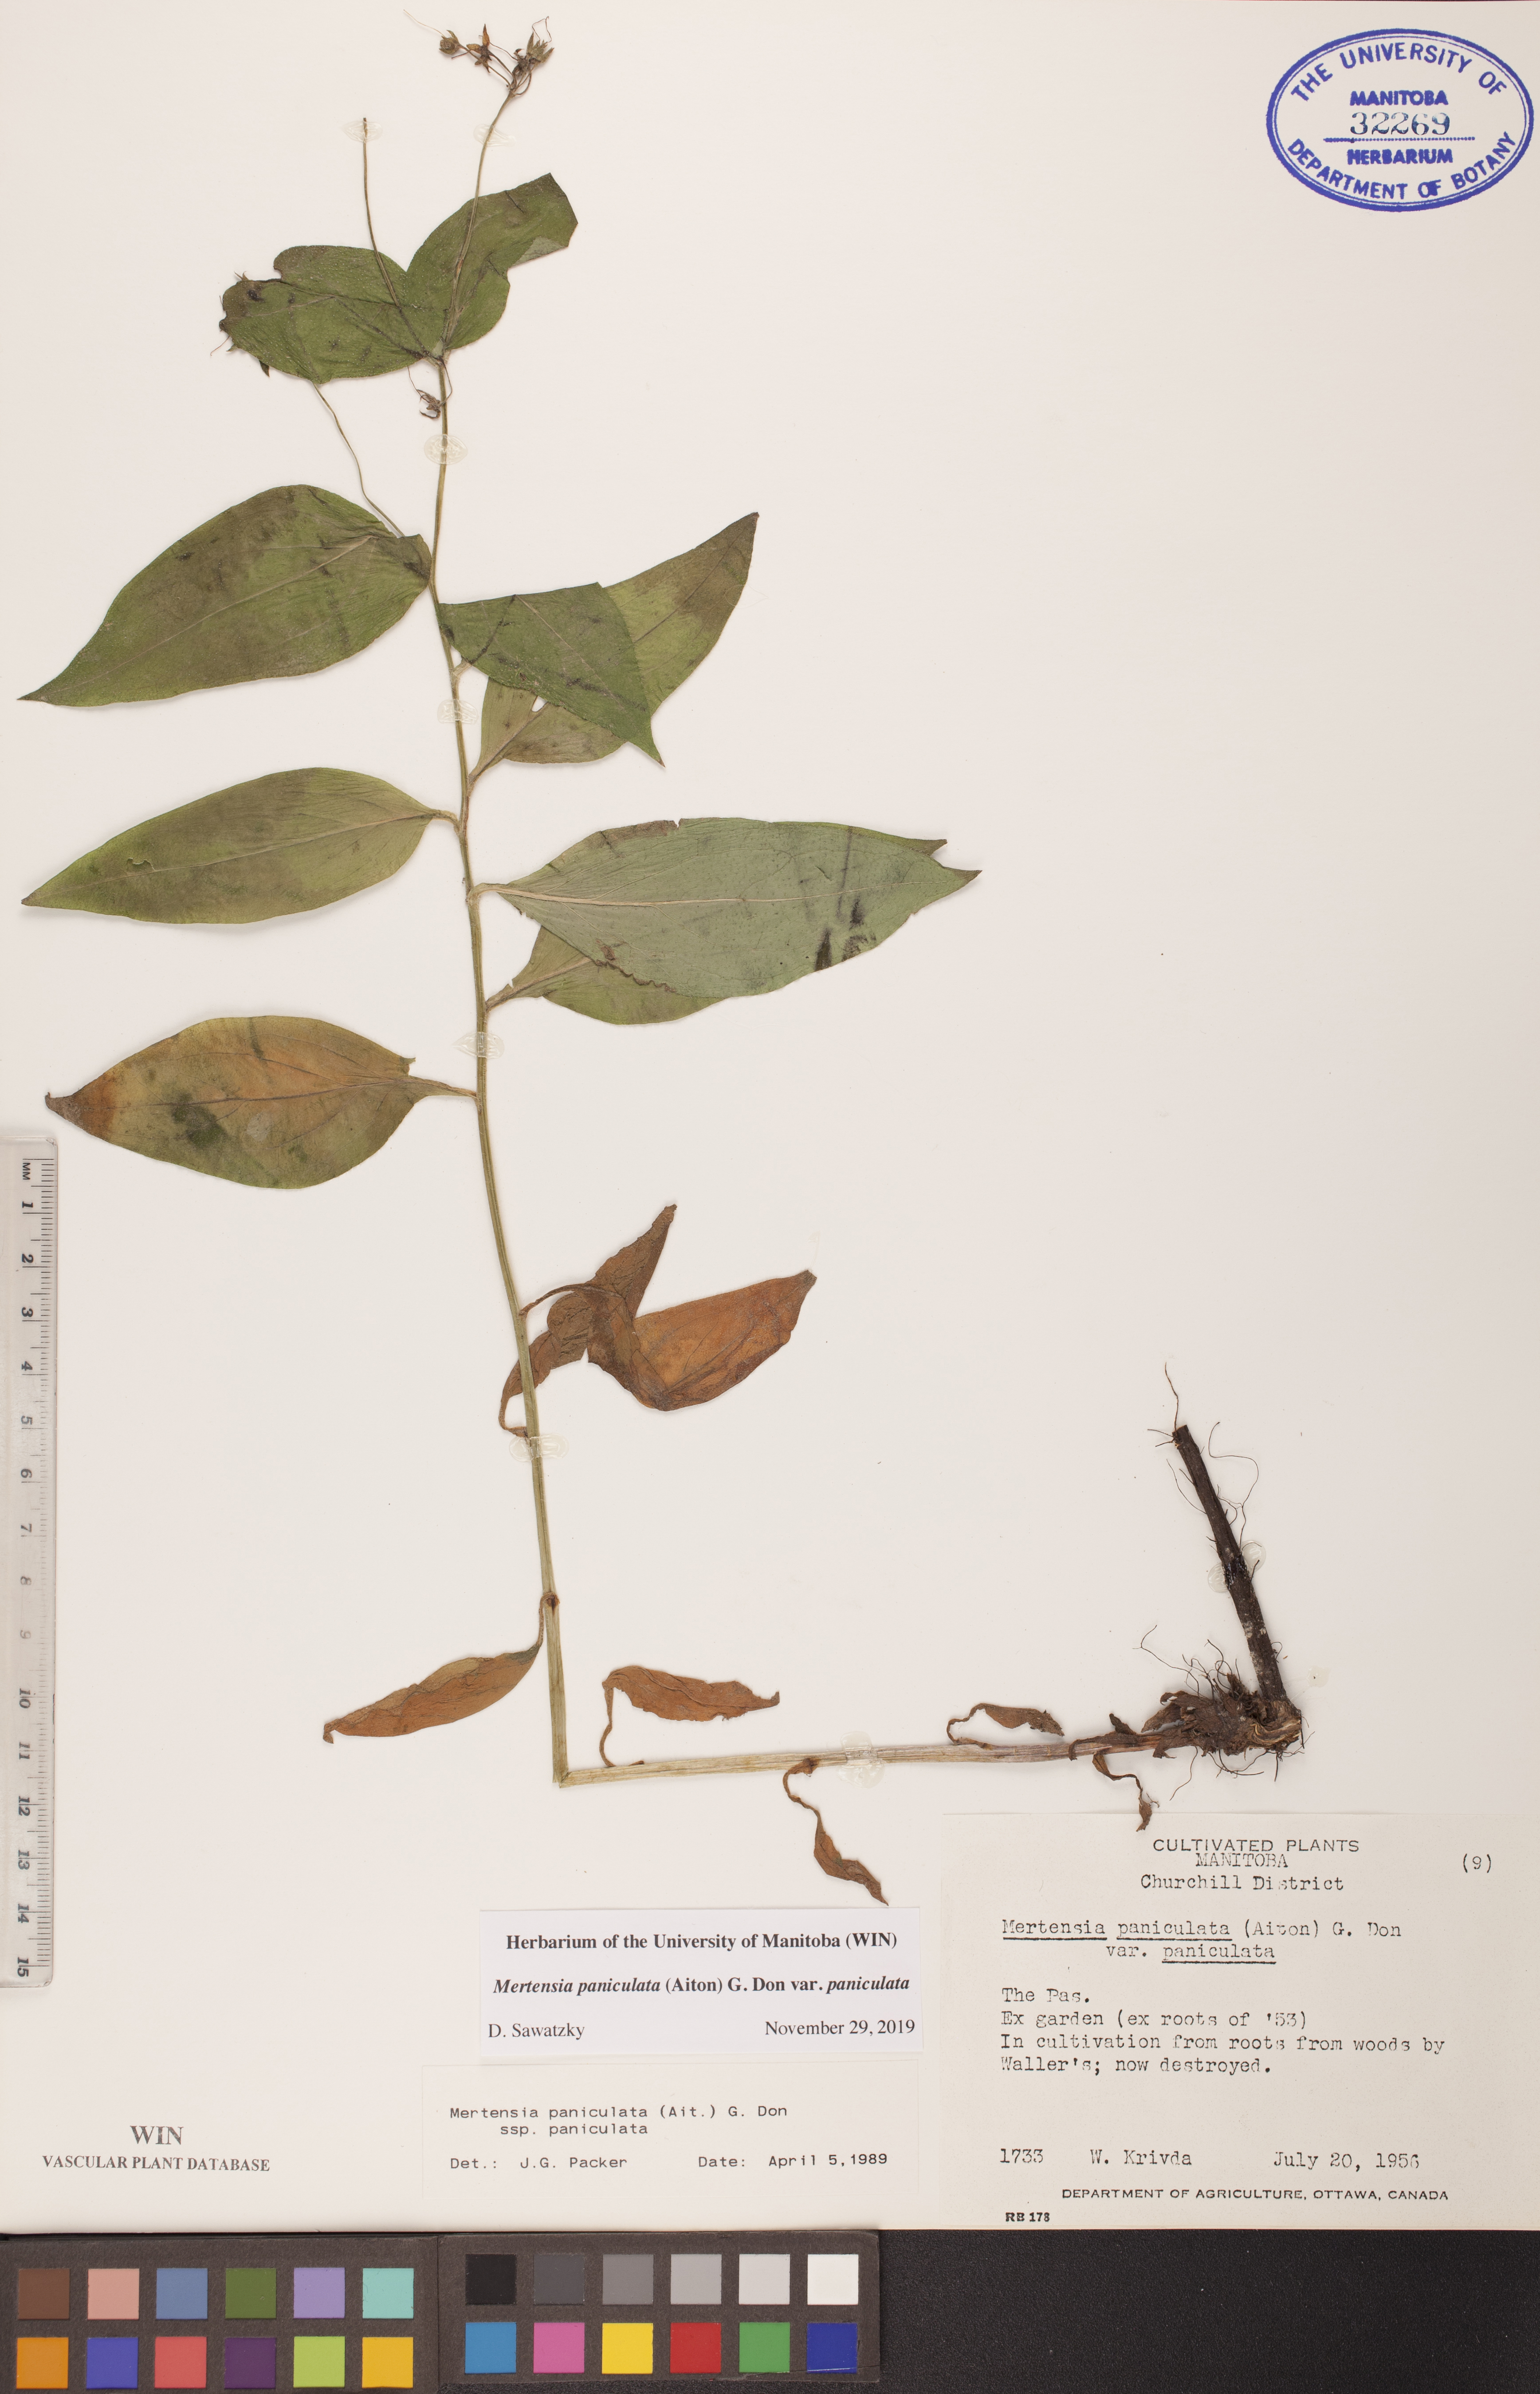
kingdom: Plantae
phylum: Tracheophyta
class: Magnoliopsida
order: Boraginales
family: Boraginaceae
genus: Mertensia
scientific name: Mertensia paniculata
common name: Panicled bluebells
